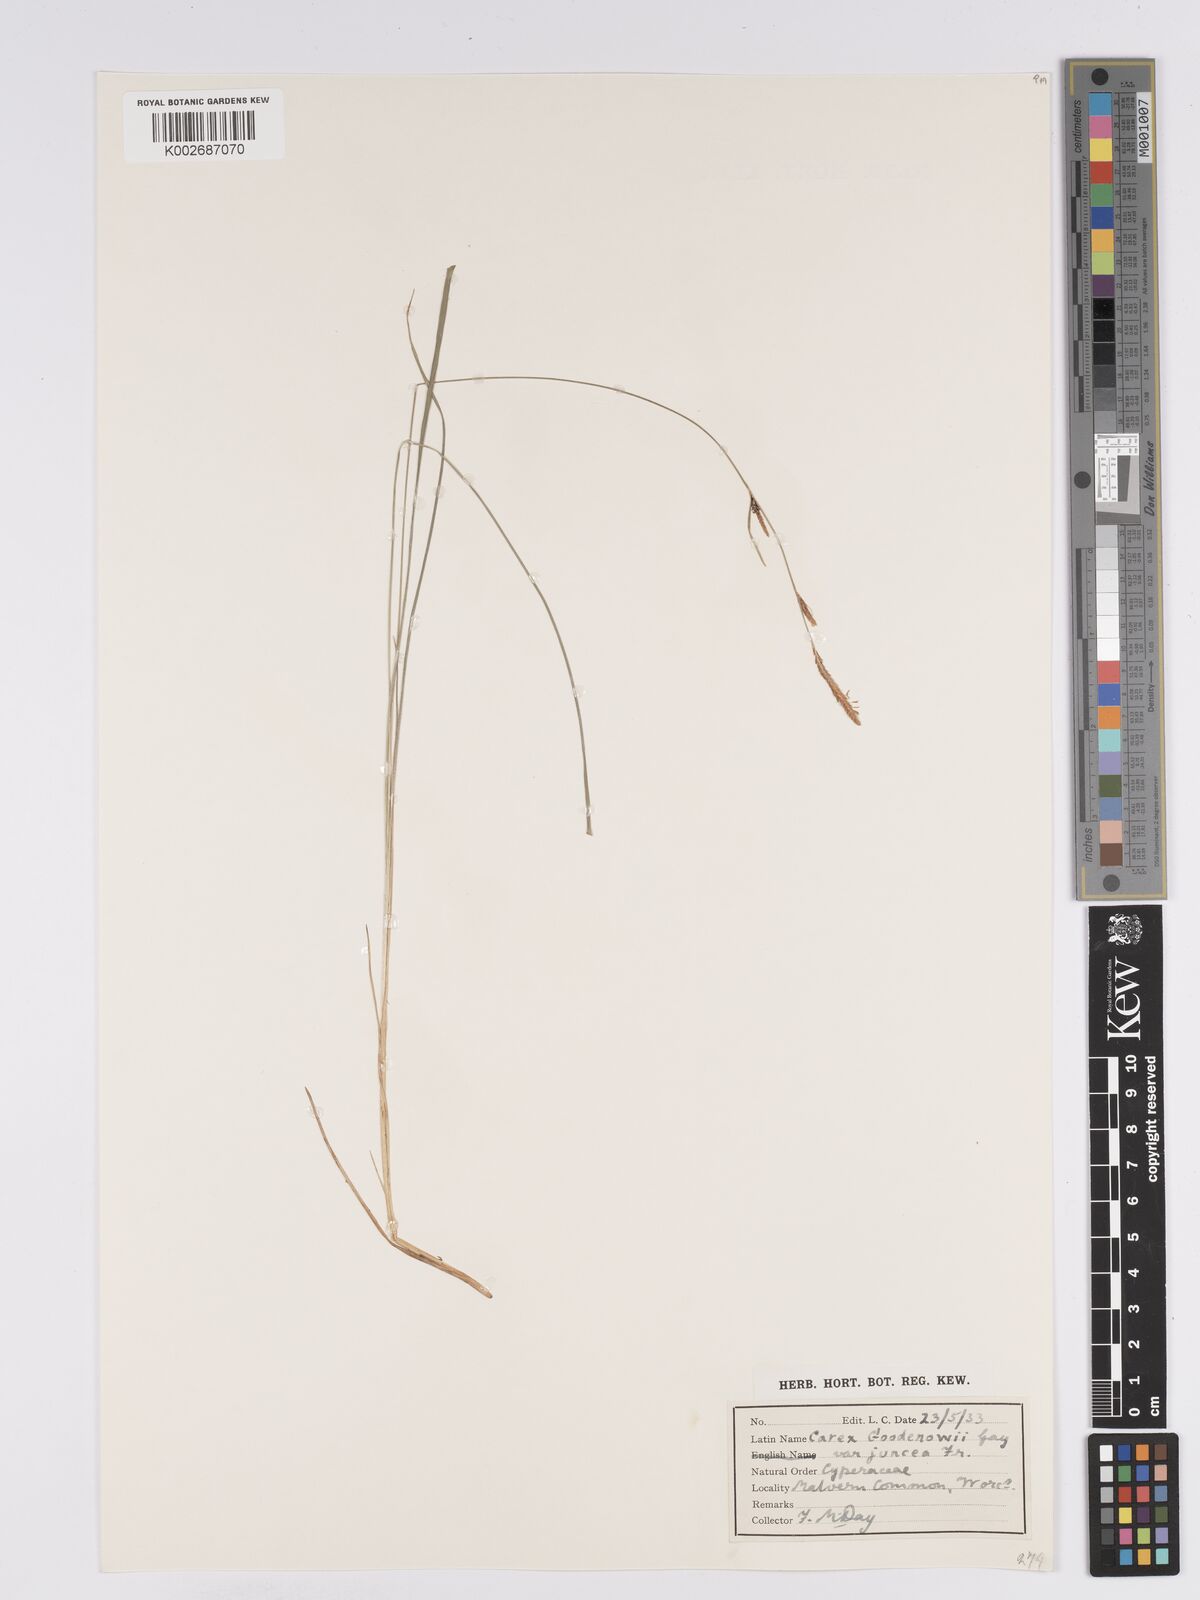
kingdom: Plantae
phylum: Tracheophyta
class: Liliopsida
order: Poales
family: Cyperaceae
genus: Carex
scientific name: Carex nigra
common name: Common sedge
